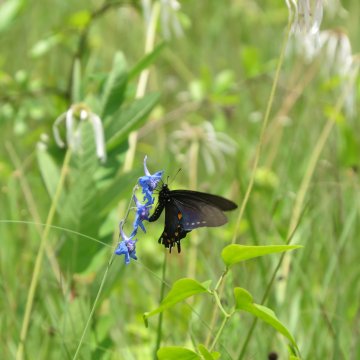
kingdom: Animalia
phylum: Arthropoda
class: Insecta
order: Lepidoptera
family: Papilionidae
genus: Battus
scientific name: Battus philenor
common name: Pipevine Swallowtail
